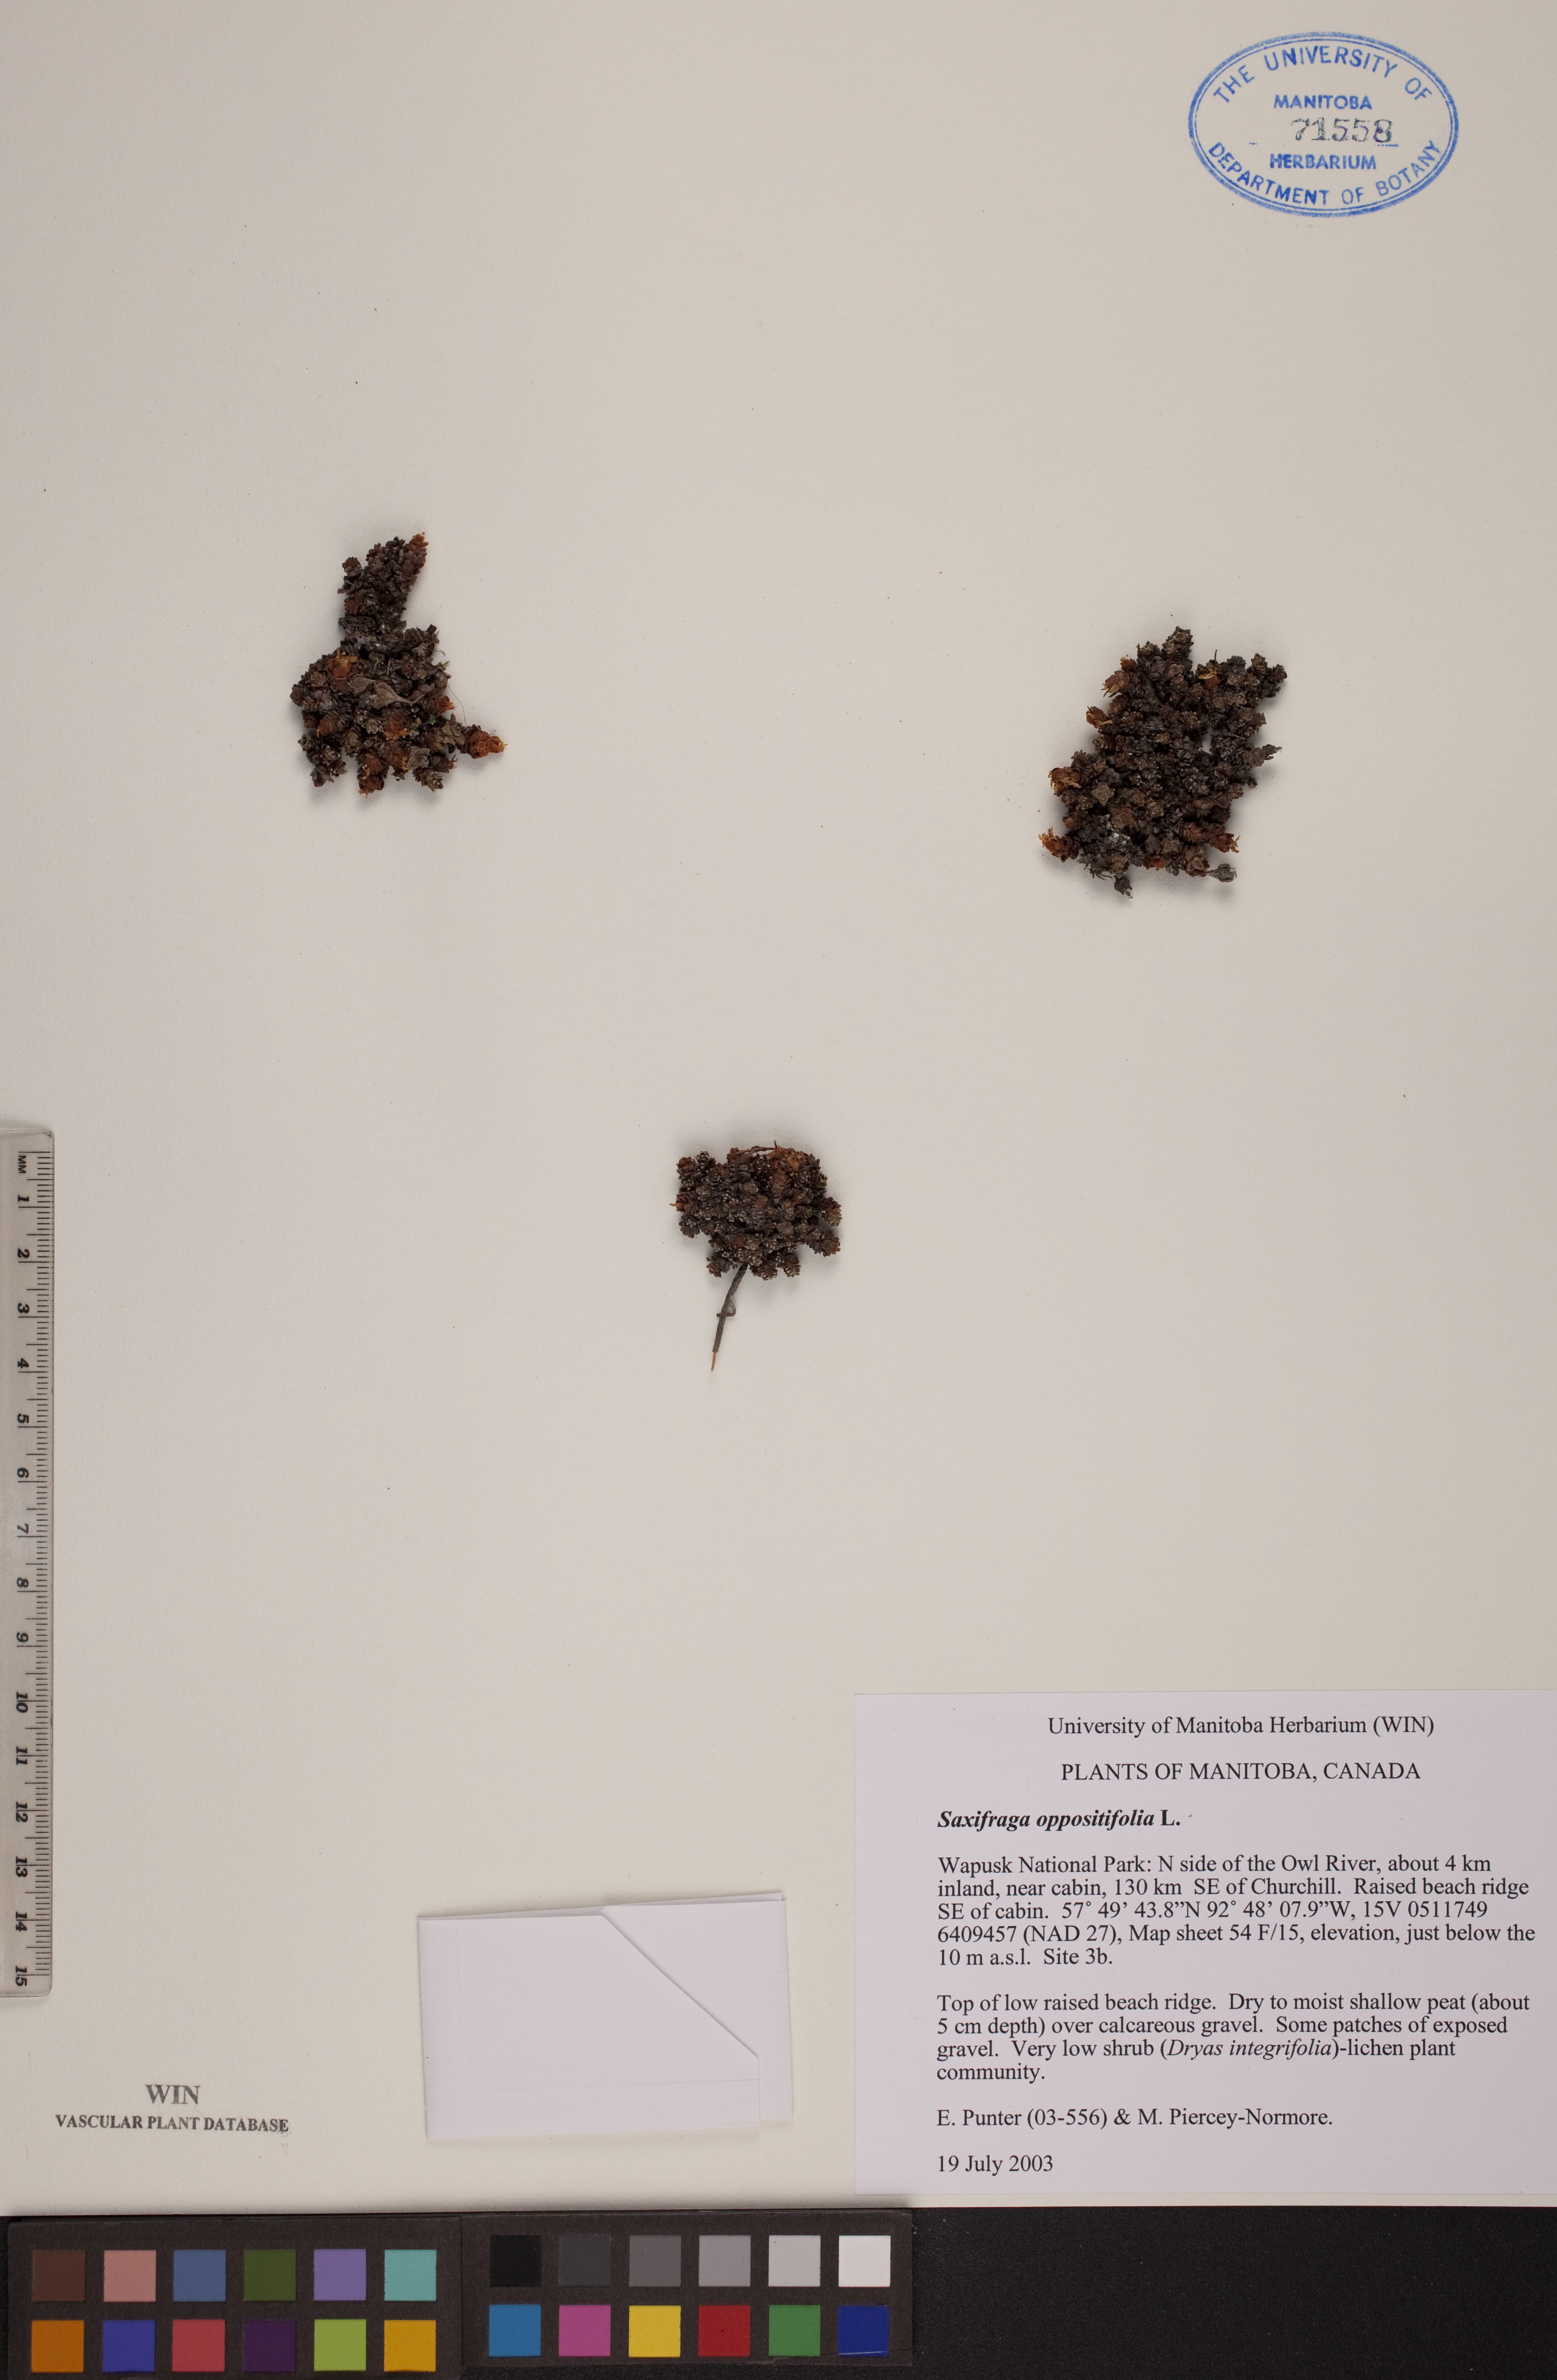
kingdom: Plantae
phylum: Tracheophyta
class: Magnoliopsida
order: Saxifragales
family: Saxifragaceae
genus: Saxifraga
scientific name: Saxifraga oppositifolia
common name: Purple saxifrage
